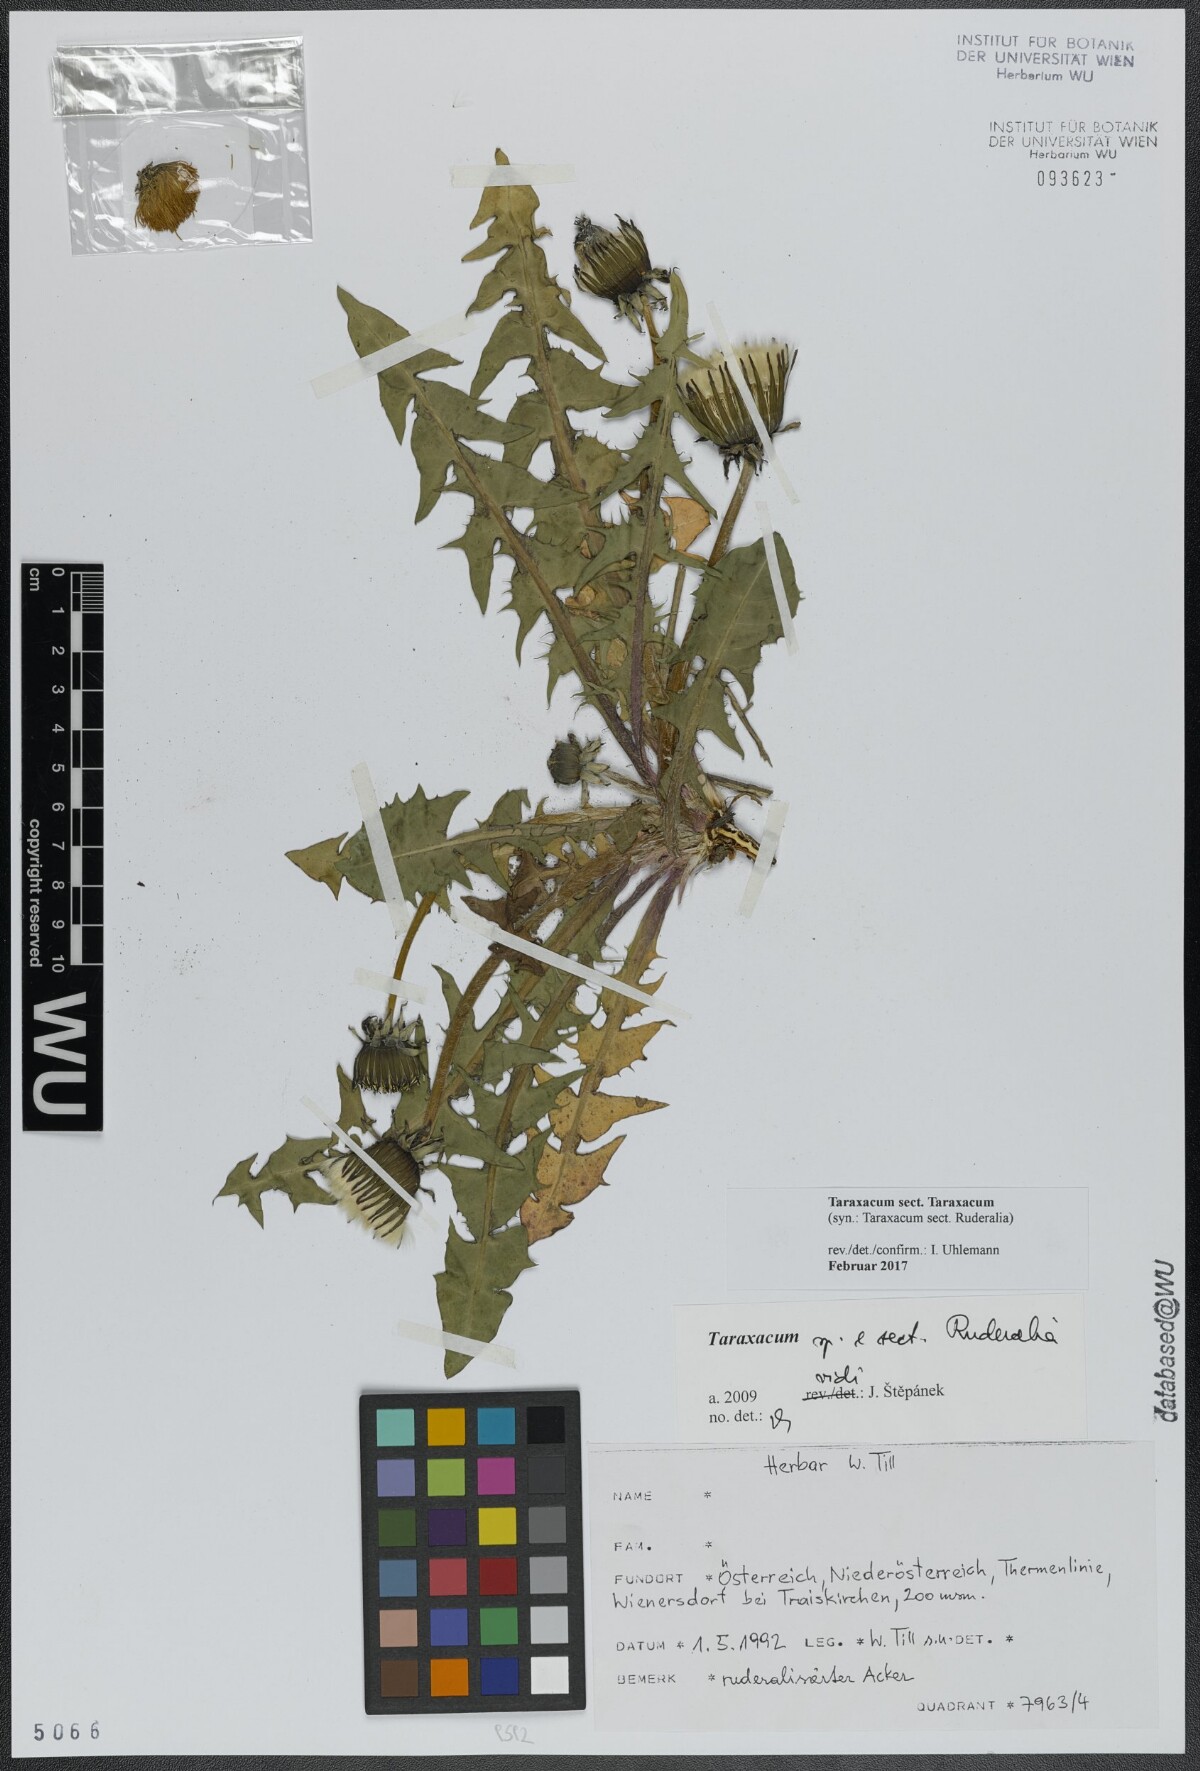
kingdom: Plantae
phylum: Tracheophyta
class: Magnoliopsida
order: Asterales
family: Asteraceae
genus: Taraxacum
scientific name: Taraxacum
